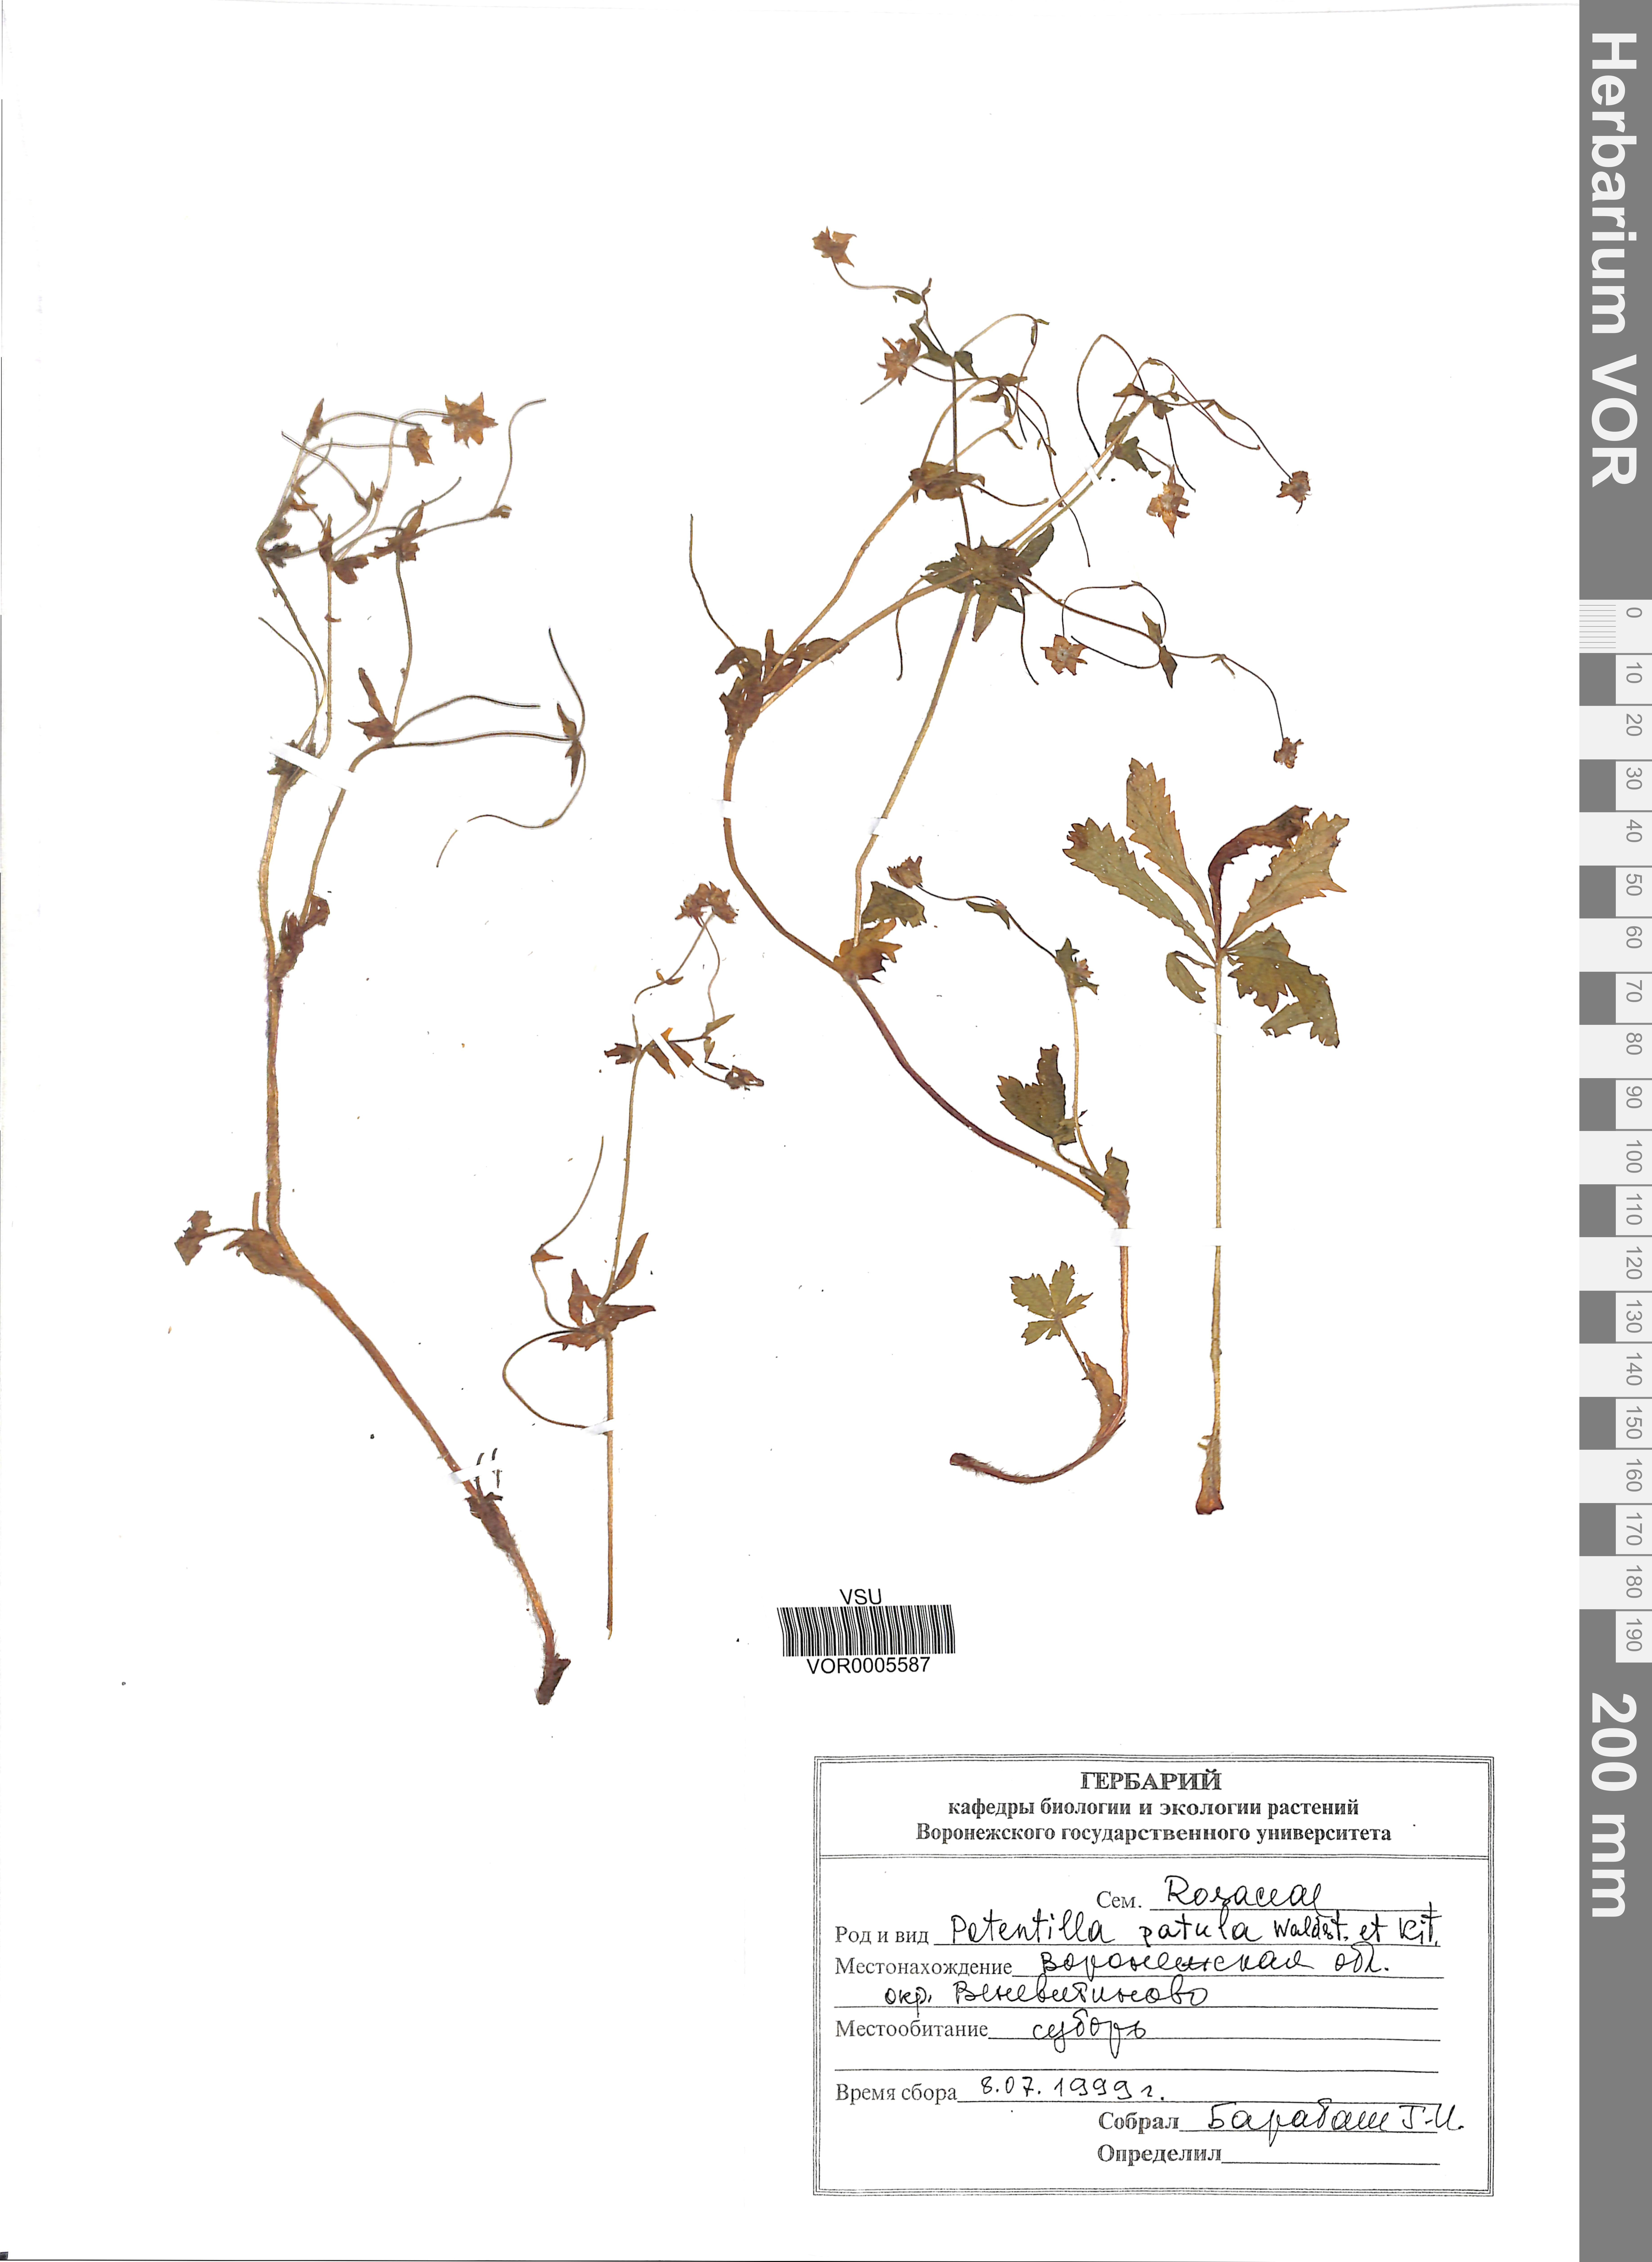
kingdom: Plantae
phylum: Tracheophyta
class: Magnoliopsida
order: Rosales
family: Rosaceae
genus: Potentilla
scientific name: Potentilla patula
